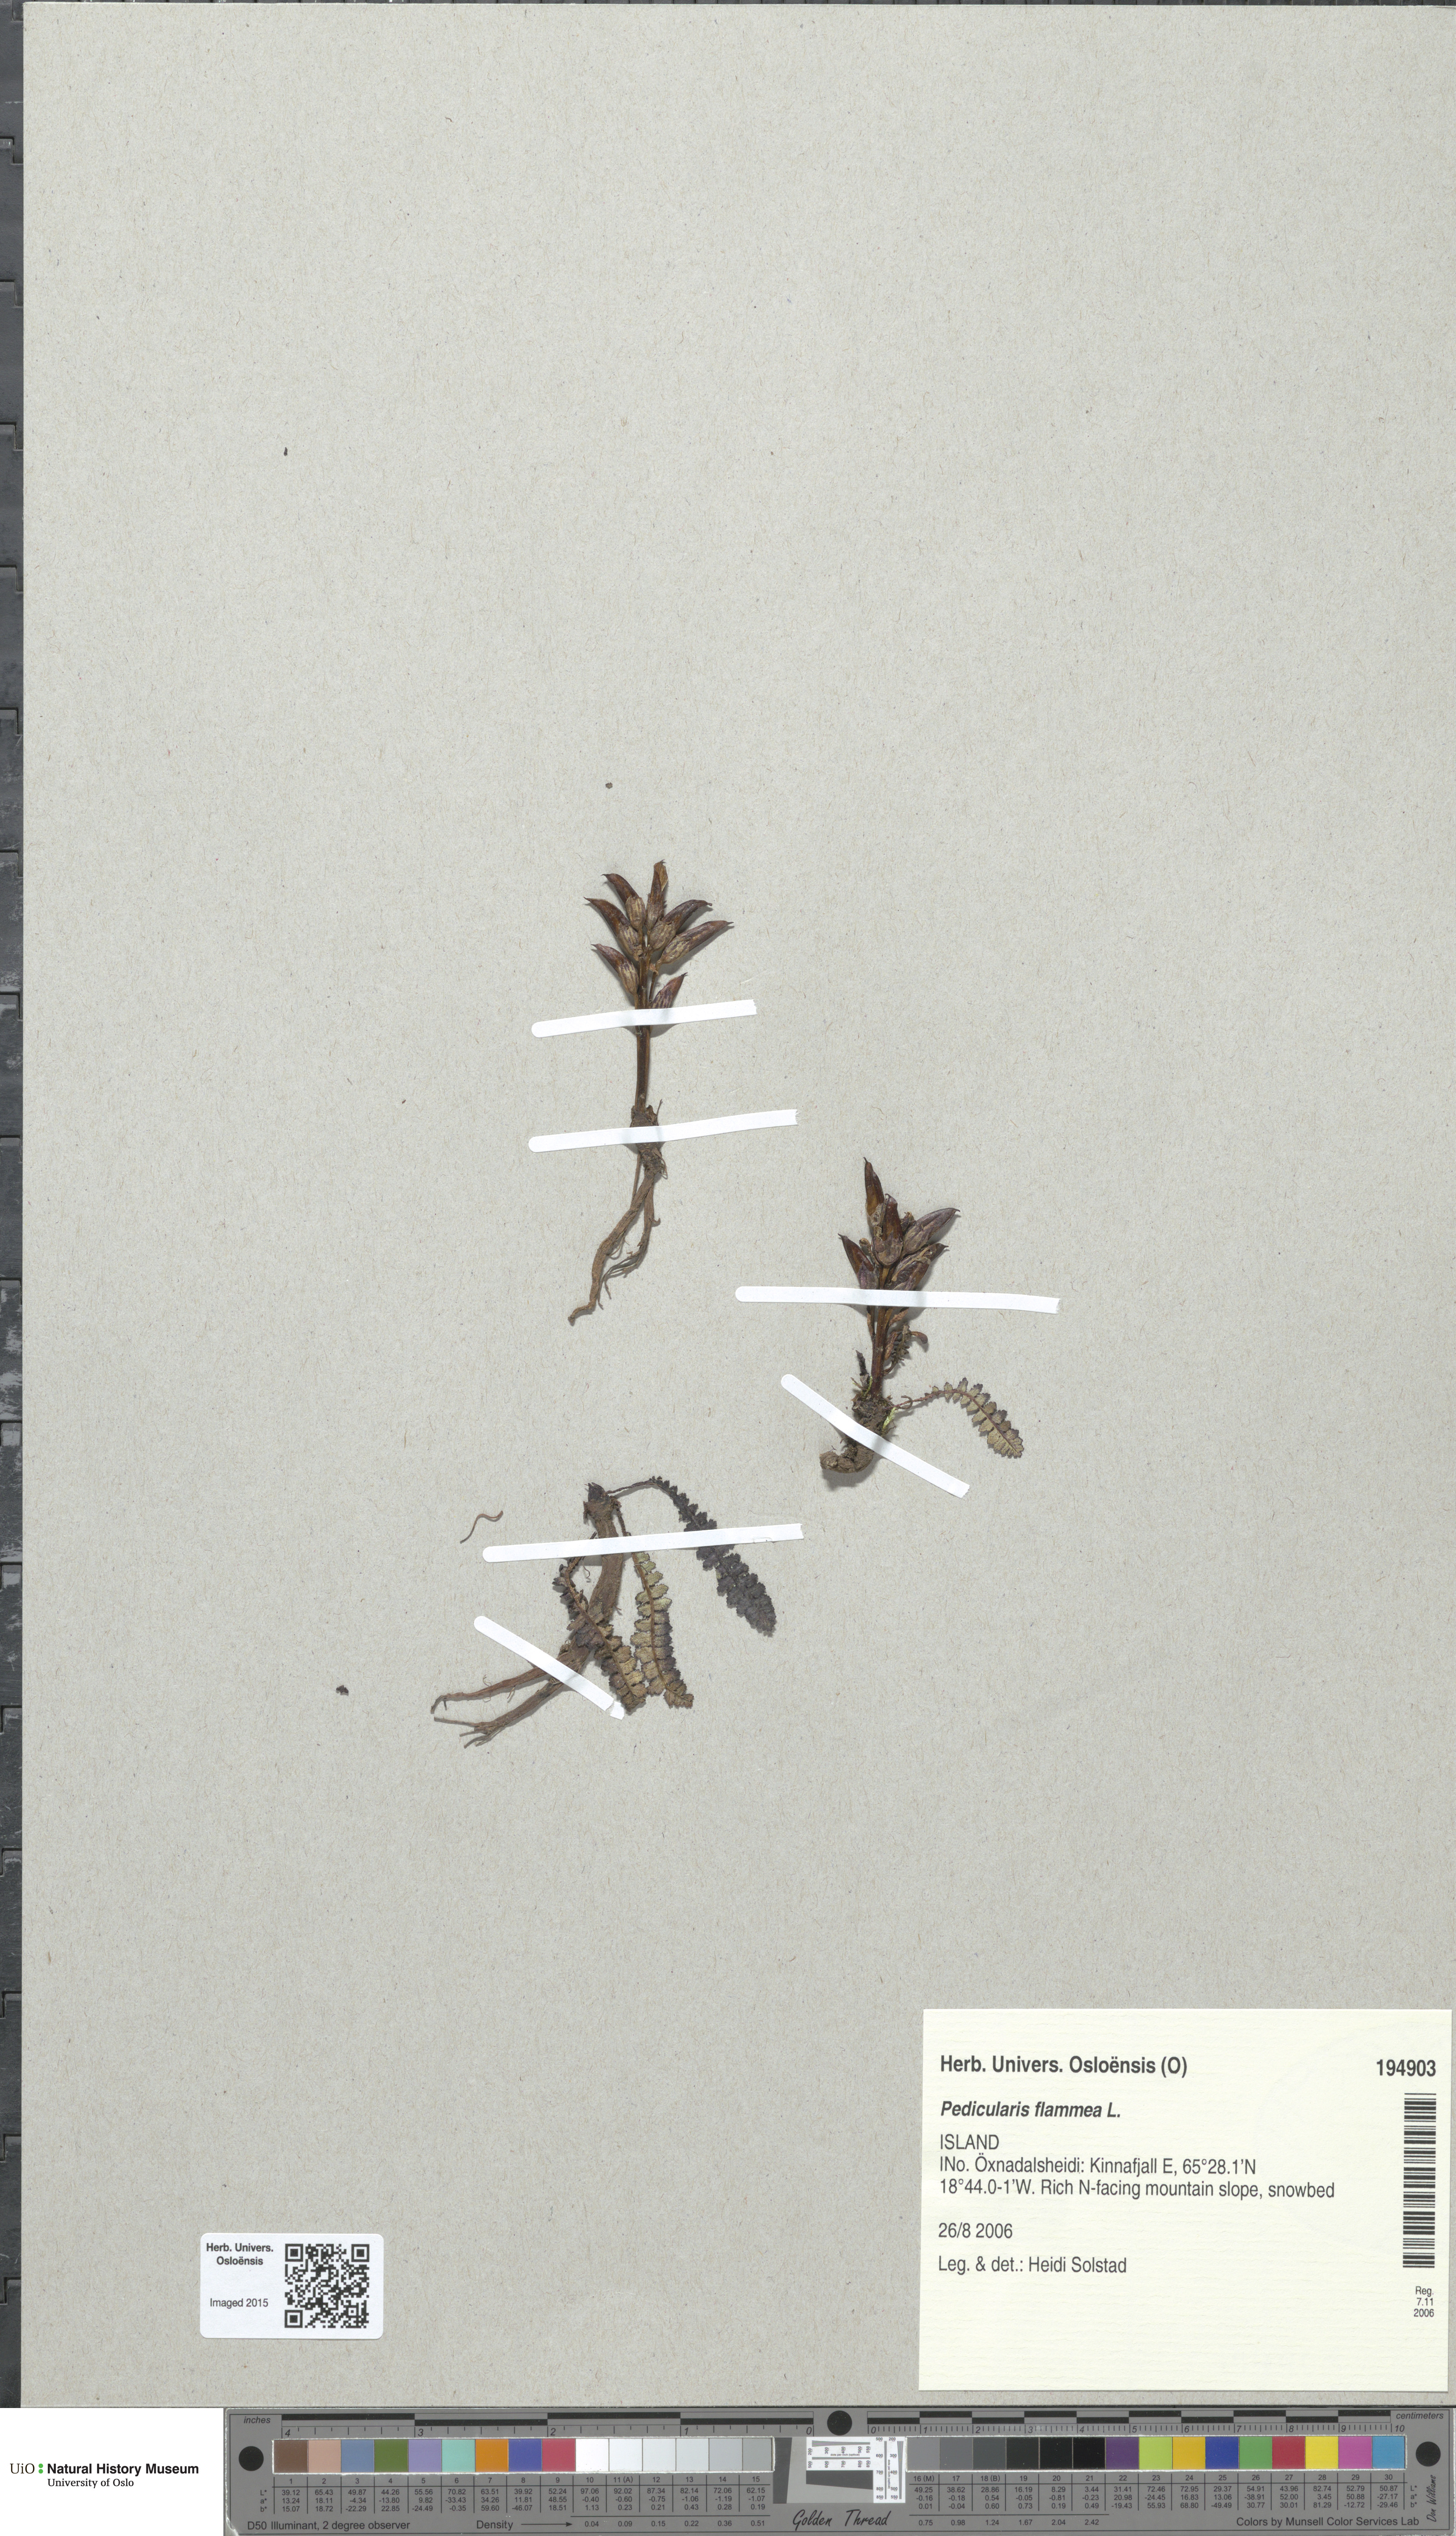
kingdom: Plantae
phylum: Tracheophyta
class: Magnoliopsida
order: Lamiales
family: Orobanchaceae
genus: Pedicularis
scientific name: Pedicularis flammea
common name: Flame-coloured lousewort
